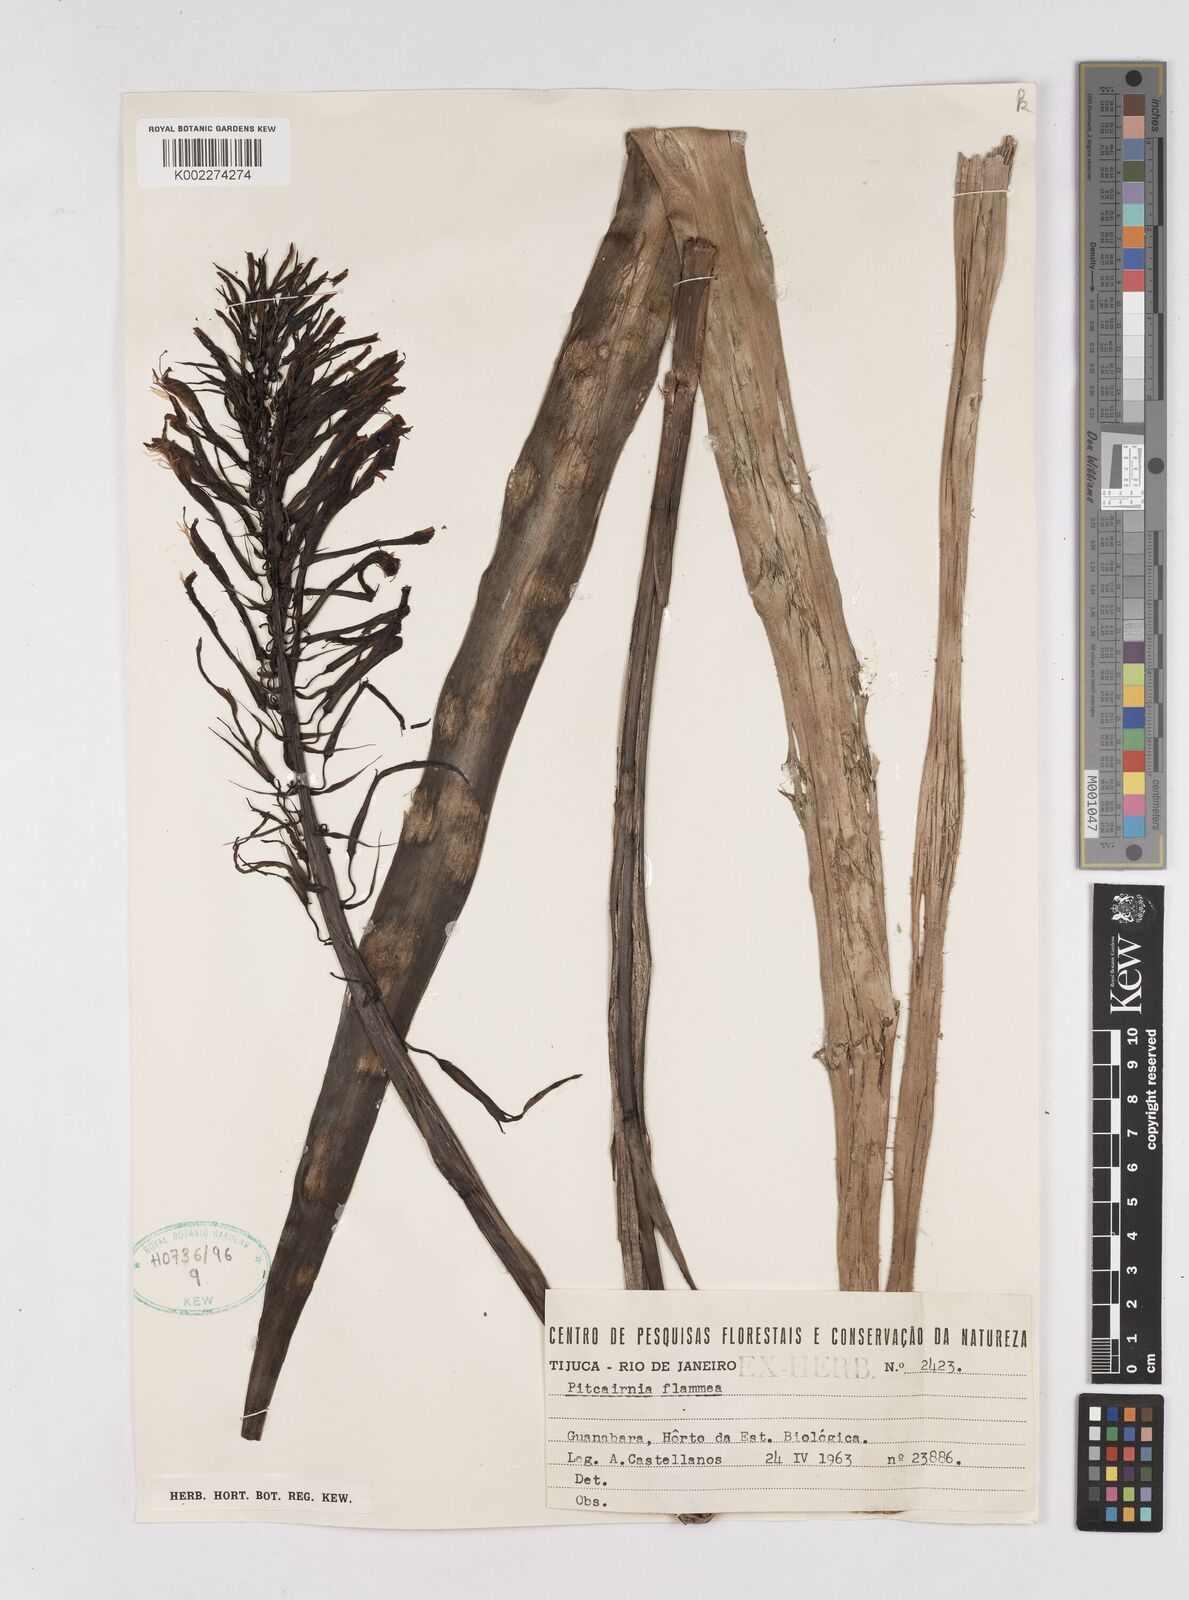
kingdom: Plantae
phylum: Tracheophyta
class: Liliopsida
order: Poales
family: Bromeliaceae
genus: Pitcairnia
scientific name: Pitcairnia flammea
